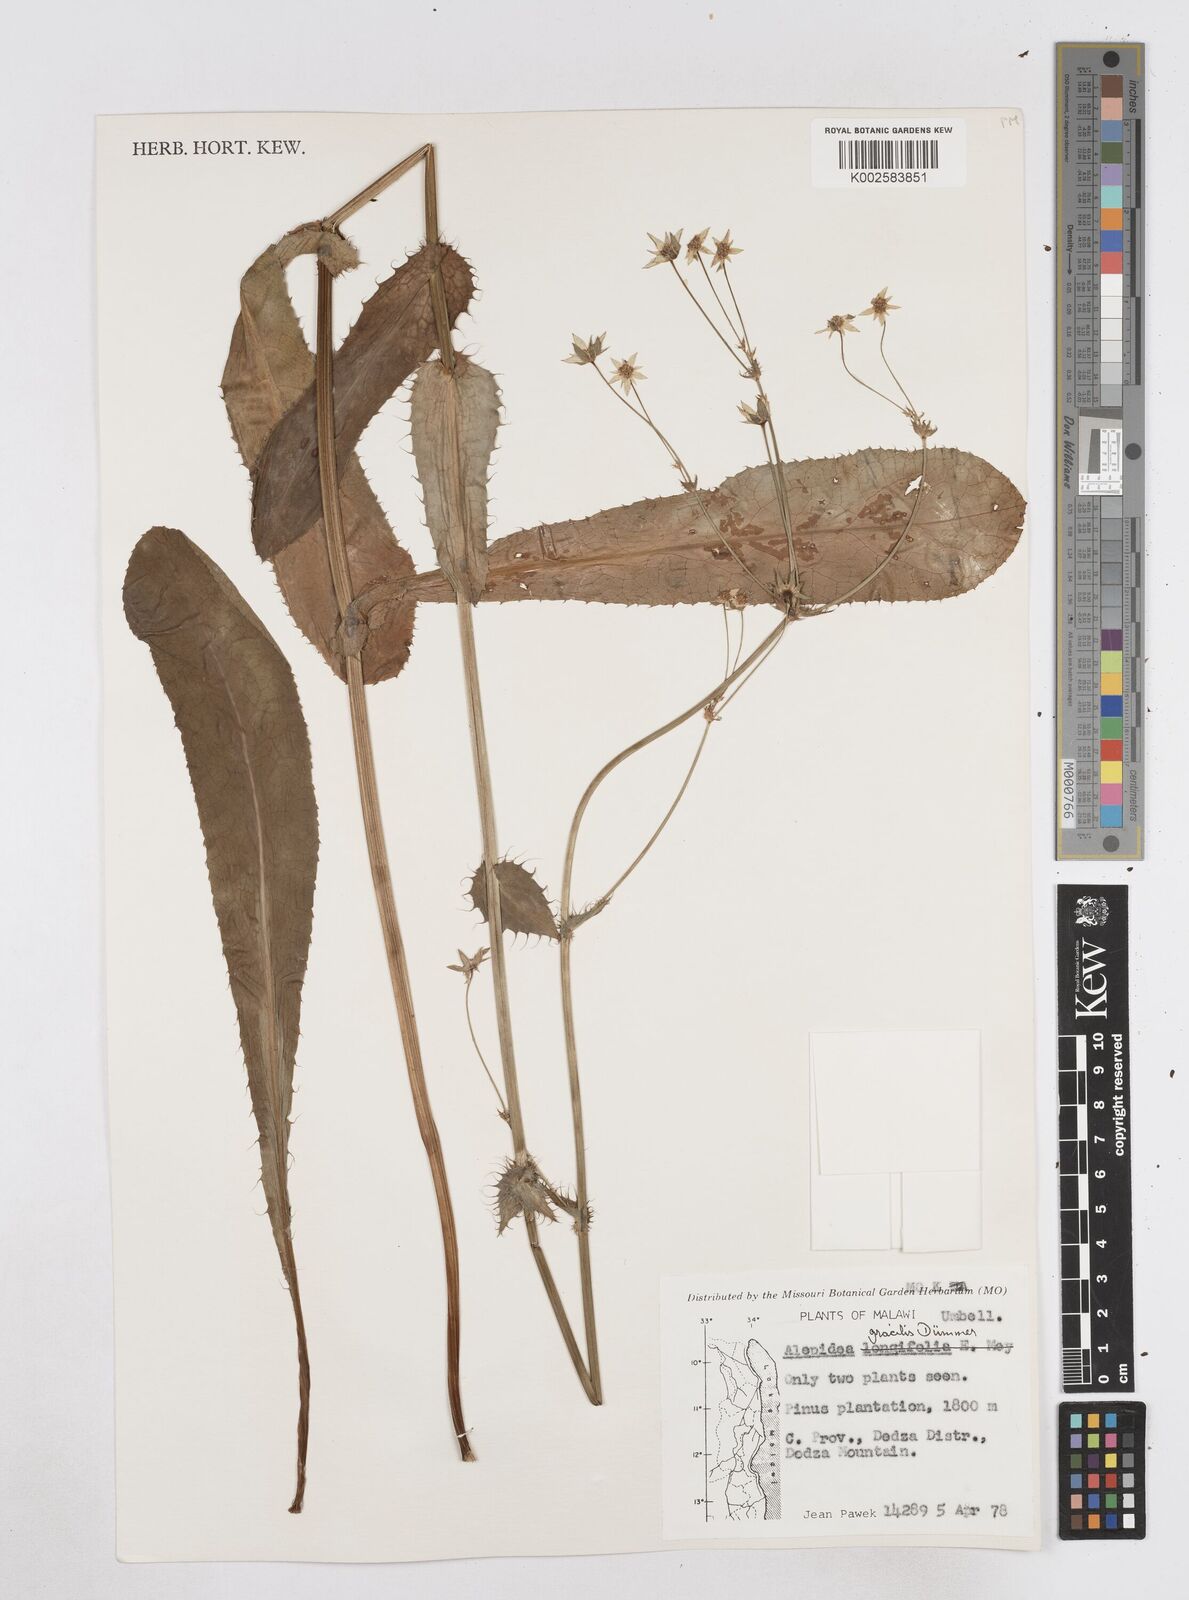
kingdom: Plantae
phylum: Tracheophyta
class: Magnoliopsida
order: Apiales
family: Apiaceae
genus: Alepidea
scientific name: Alepidea peduncularis
